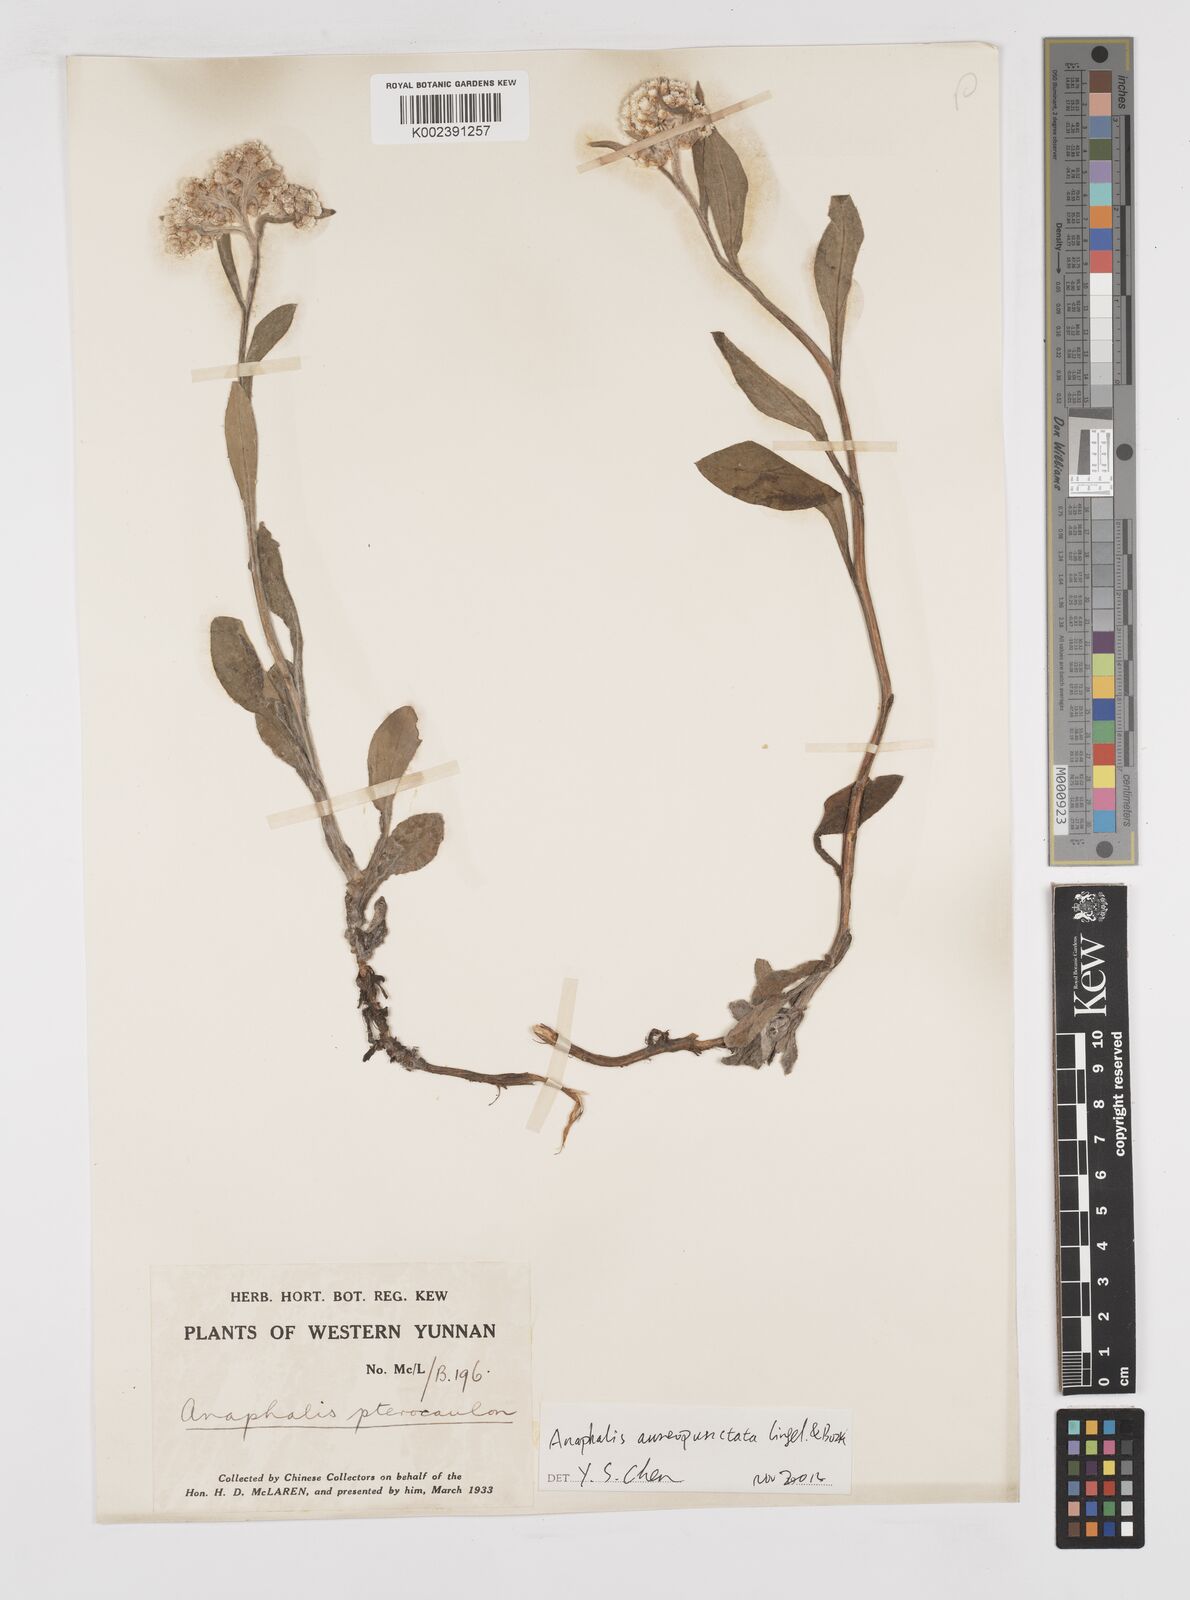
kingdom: Plantae
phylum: Tracheophyta
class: Magnoliopsida
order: Asterales
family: Asteraceae
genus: Anaphalis
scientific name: Anaphalis sinica
